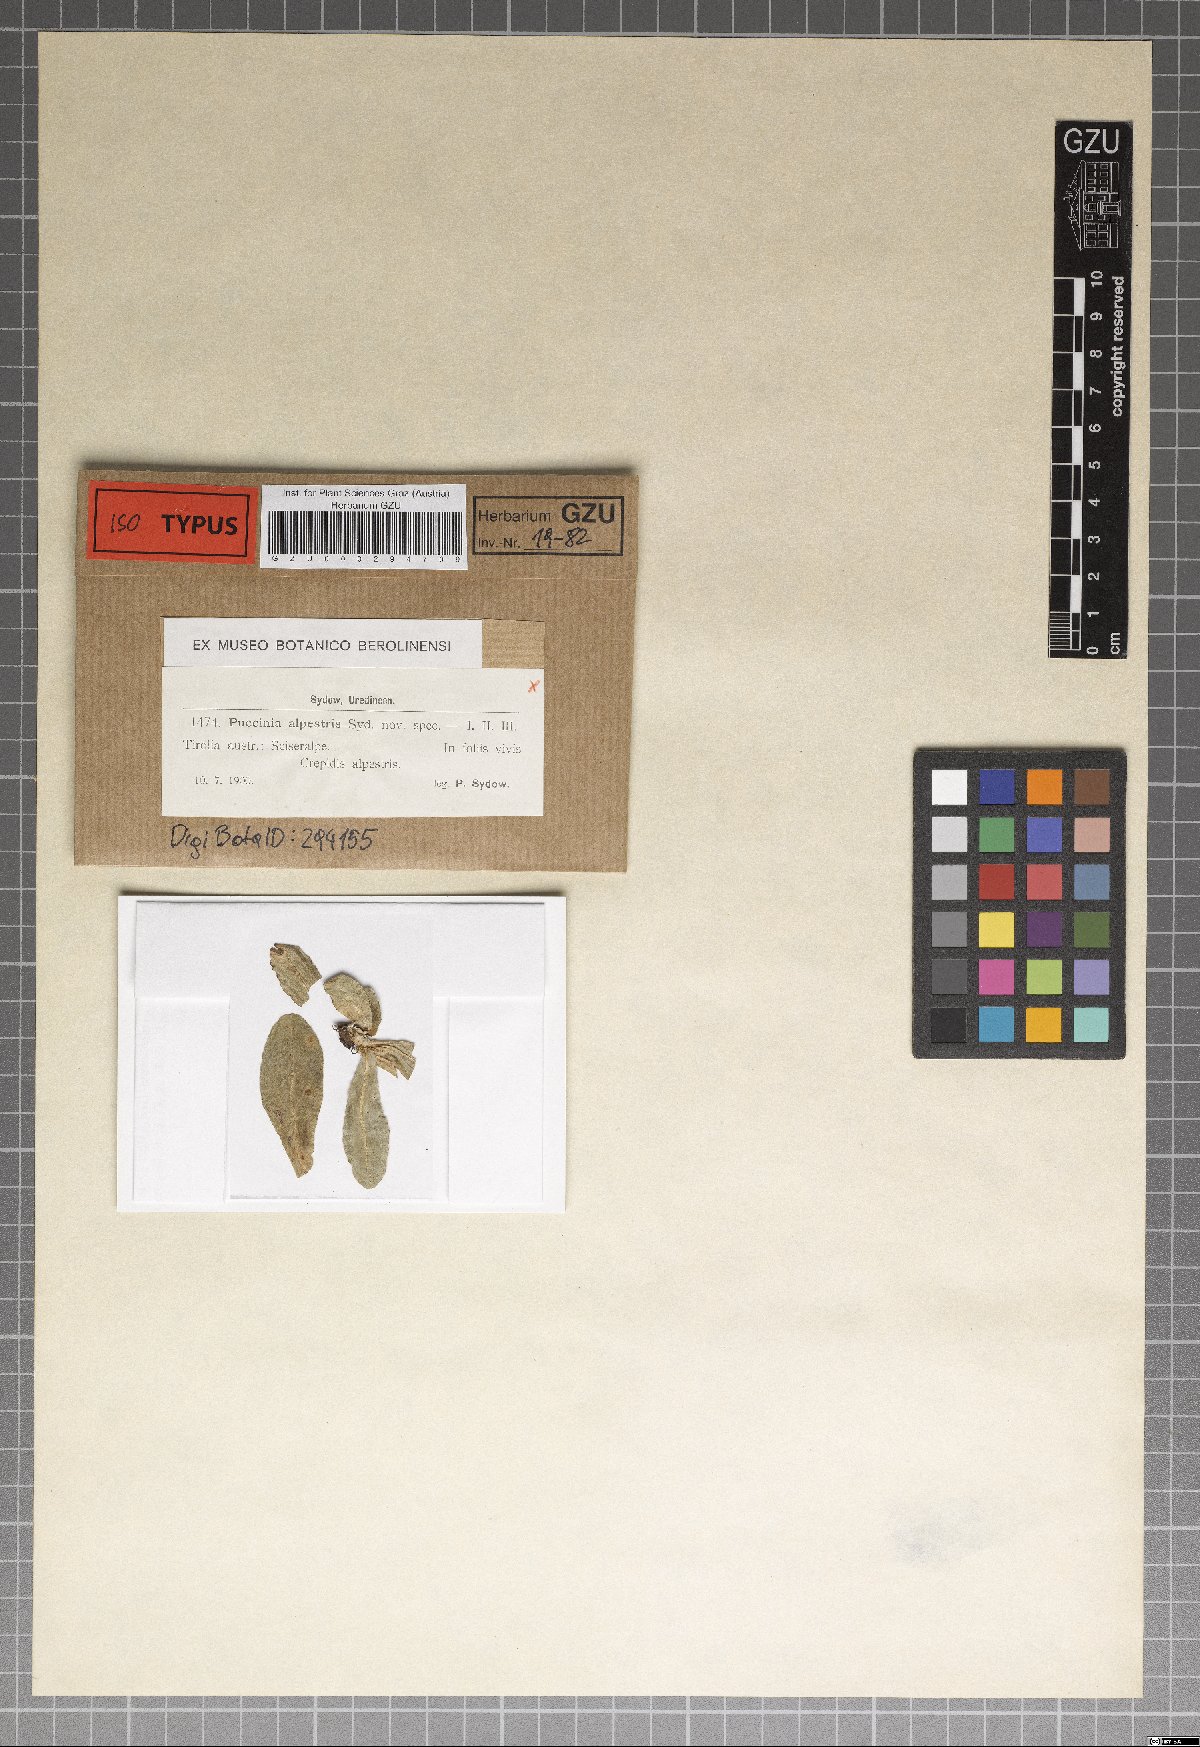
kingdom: Fungi
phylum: Basidiomycota
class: Pucciniomycetes
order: Pucciniales
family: Pucciniaceae
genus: Puccinia
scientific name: Puccinia alpestris
